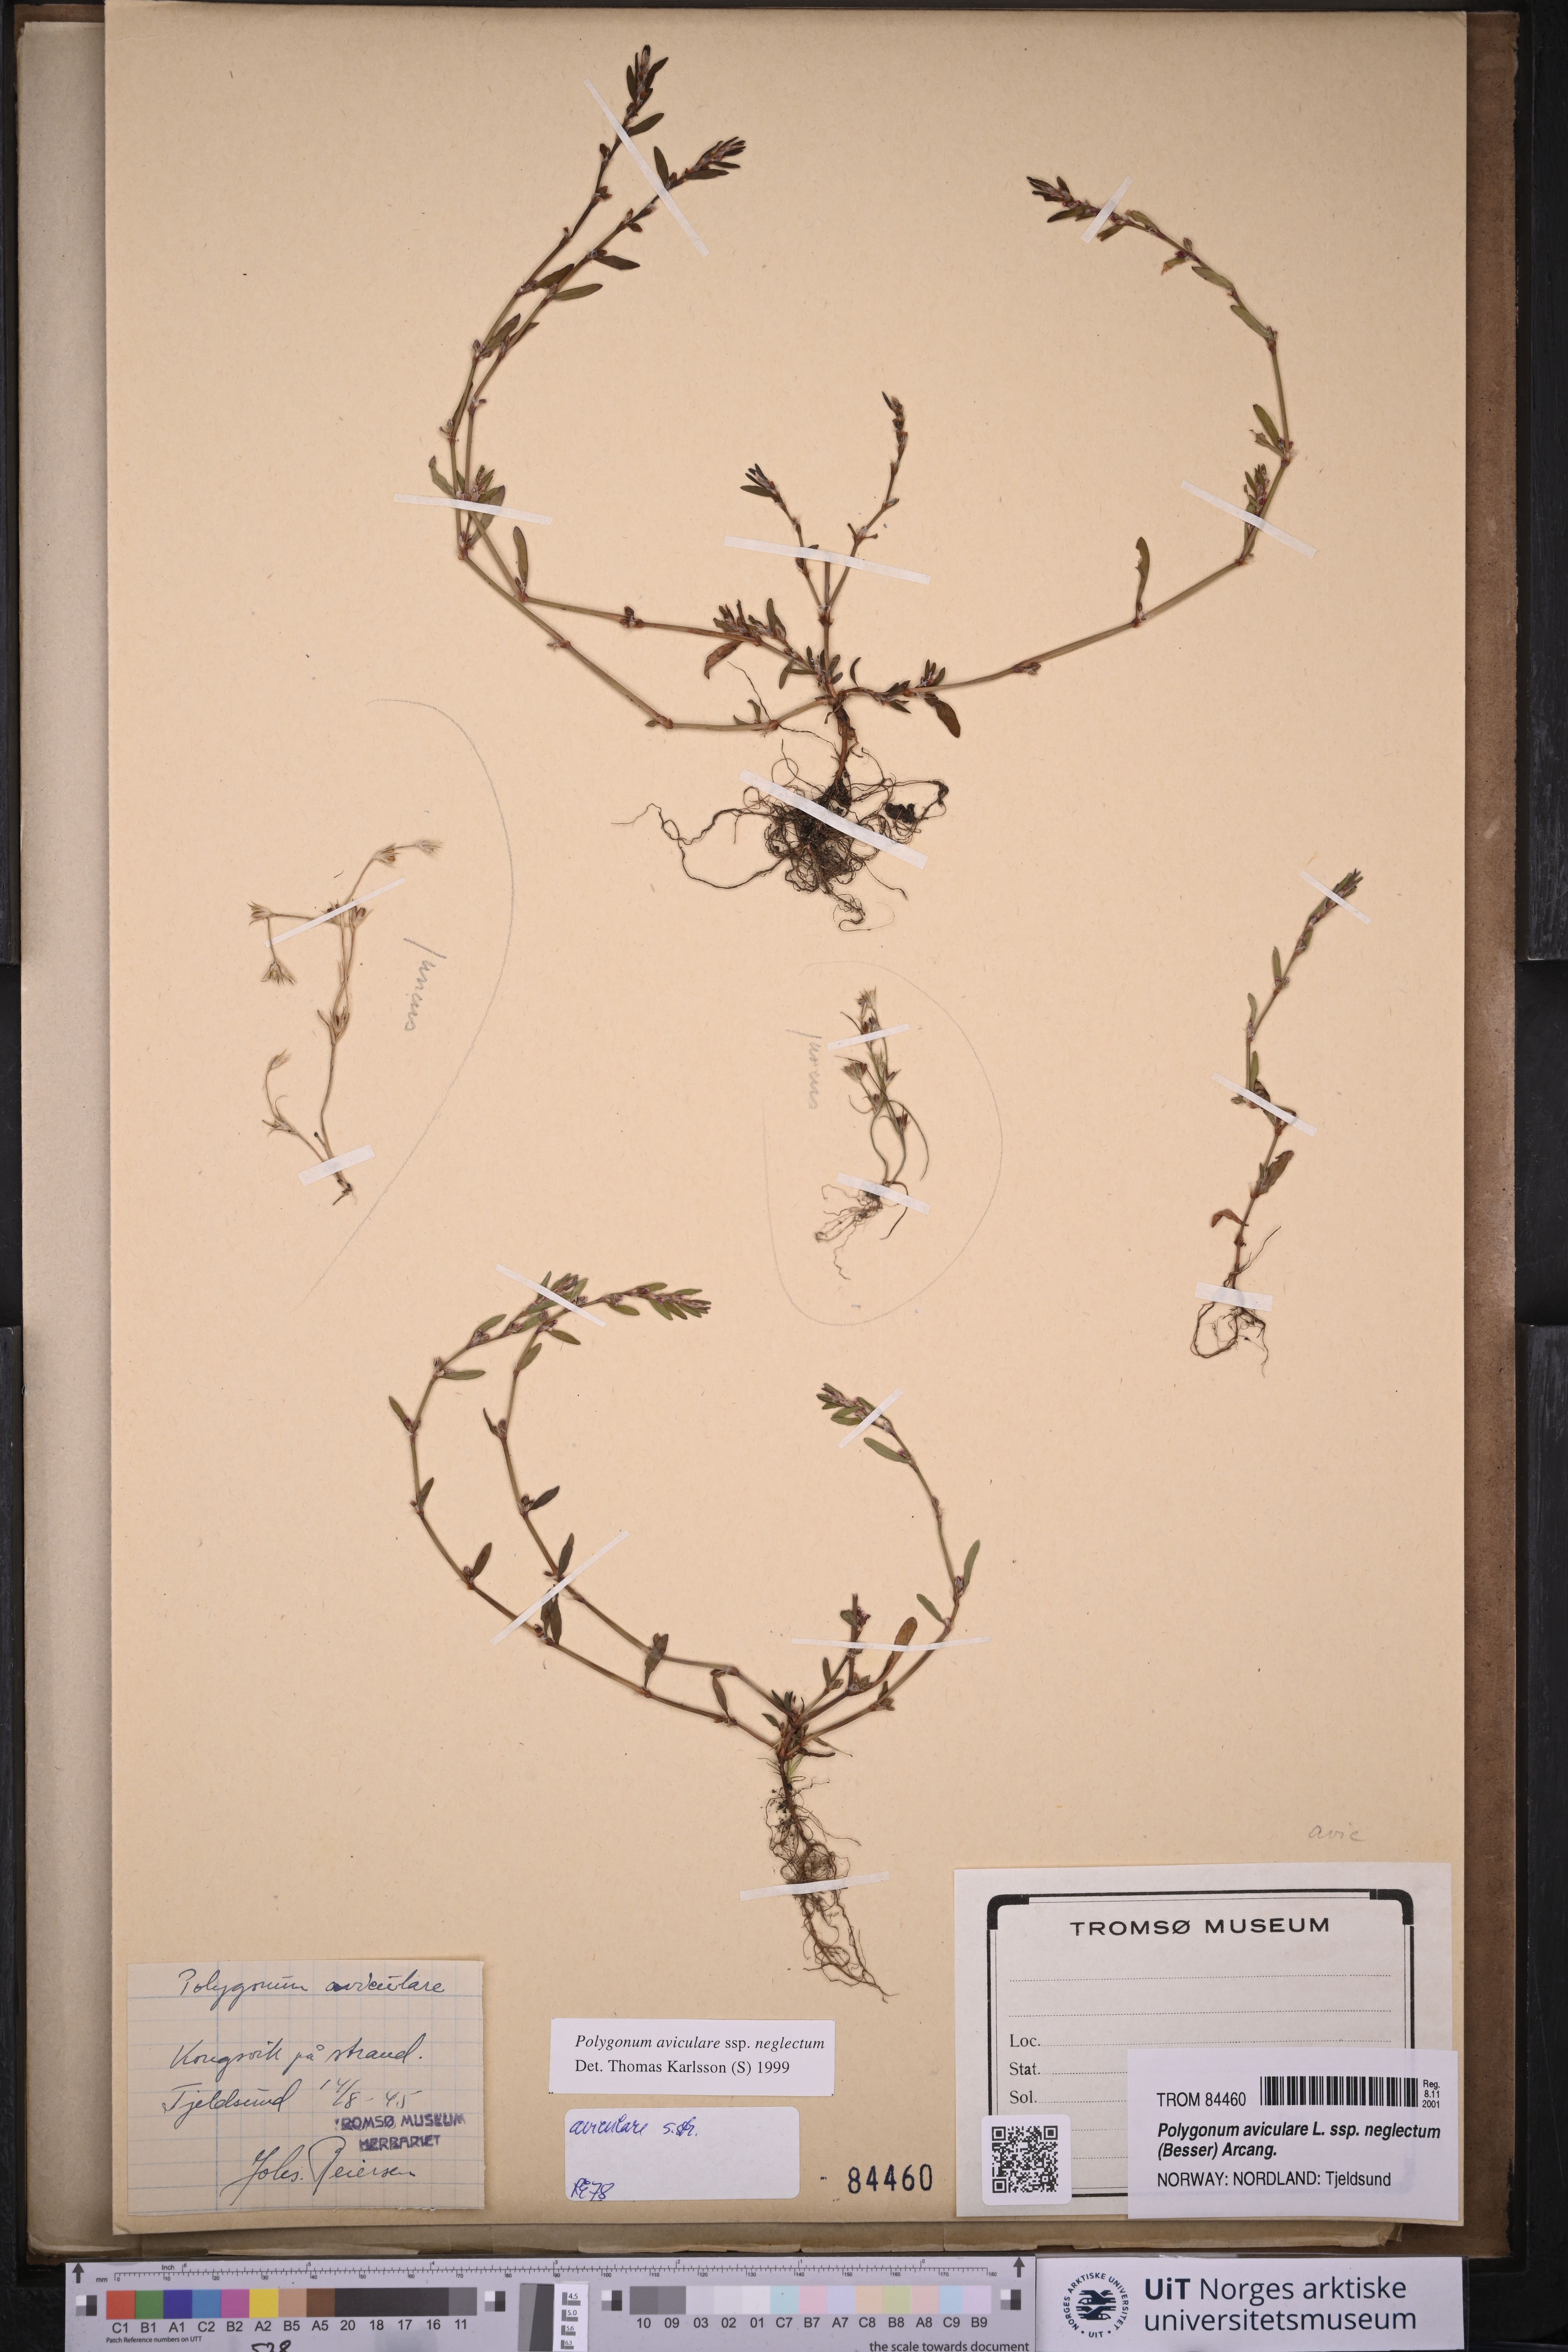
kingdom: Plantae
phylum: Tracheophyta
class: Magnoliopsida
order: Caryophyllales
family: Polygonaceae
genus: Polygonum
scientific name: Polygonum aviculare
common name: Prostrate knotweed
